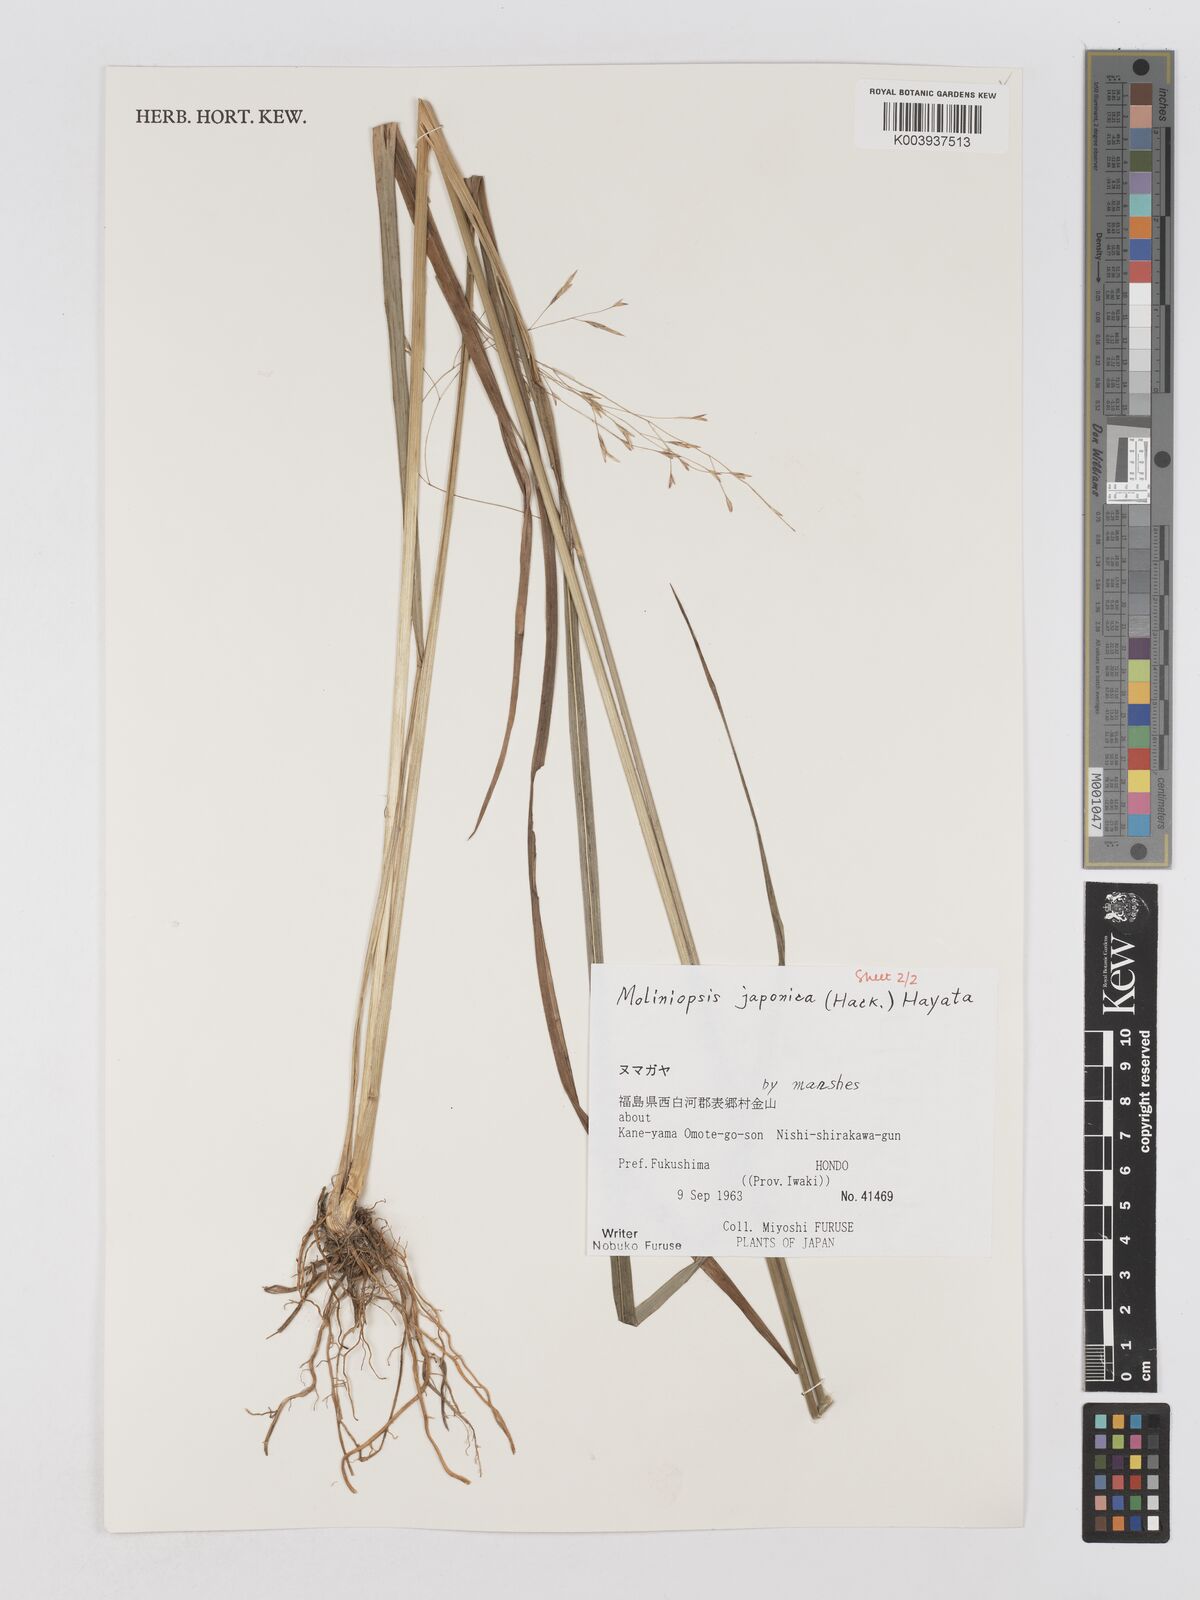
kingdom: Plantae
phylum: Tracheophyta
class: Liliopsida
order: Poales
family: Poaceae
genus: Moliniopsis
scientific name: Moliniopsis japonica
